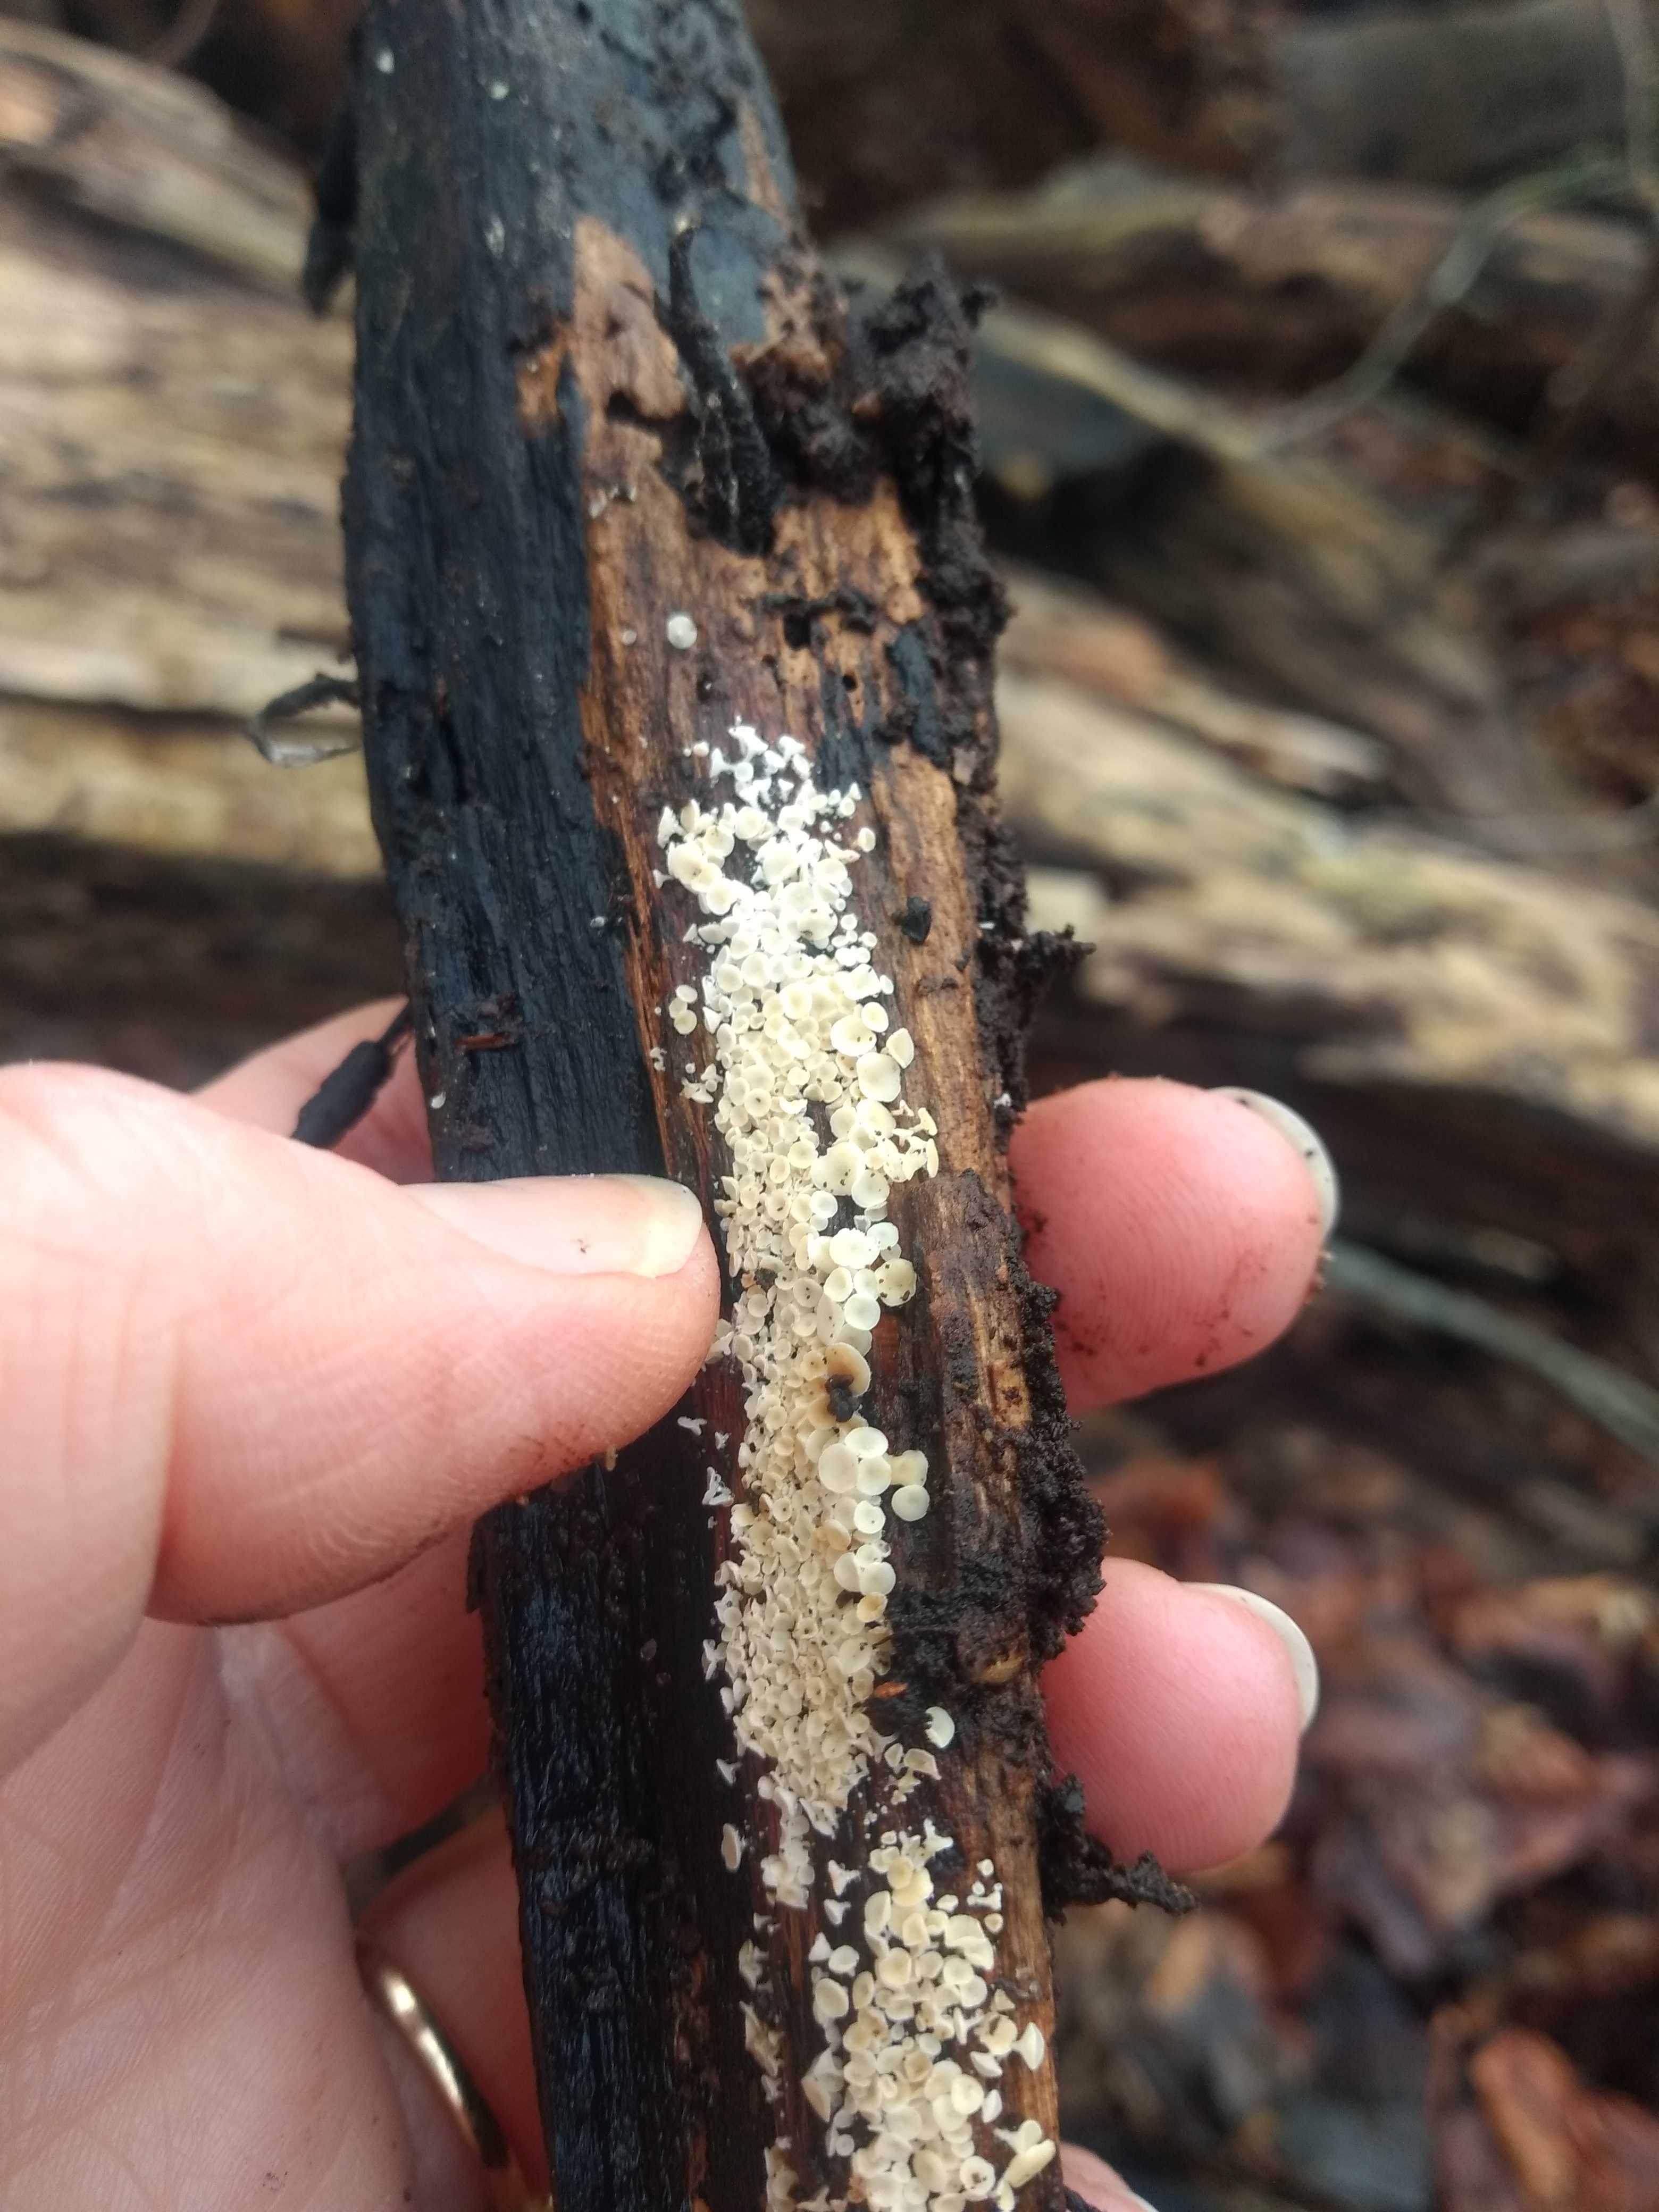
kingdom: Fungi
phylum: Ascomycota
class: Leotiomycetes
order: Helotiales
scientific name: Helotiales
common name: stilkskiveordenen
